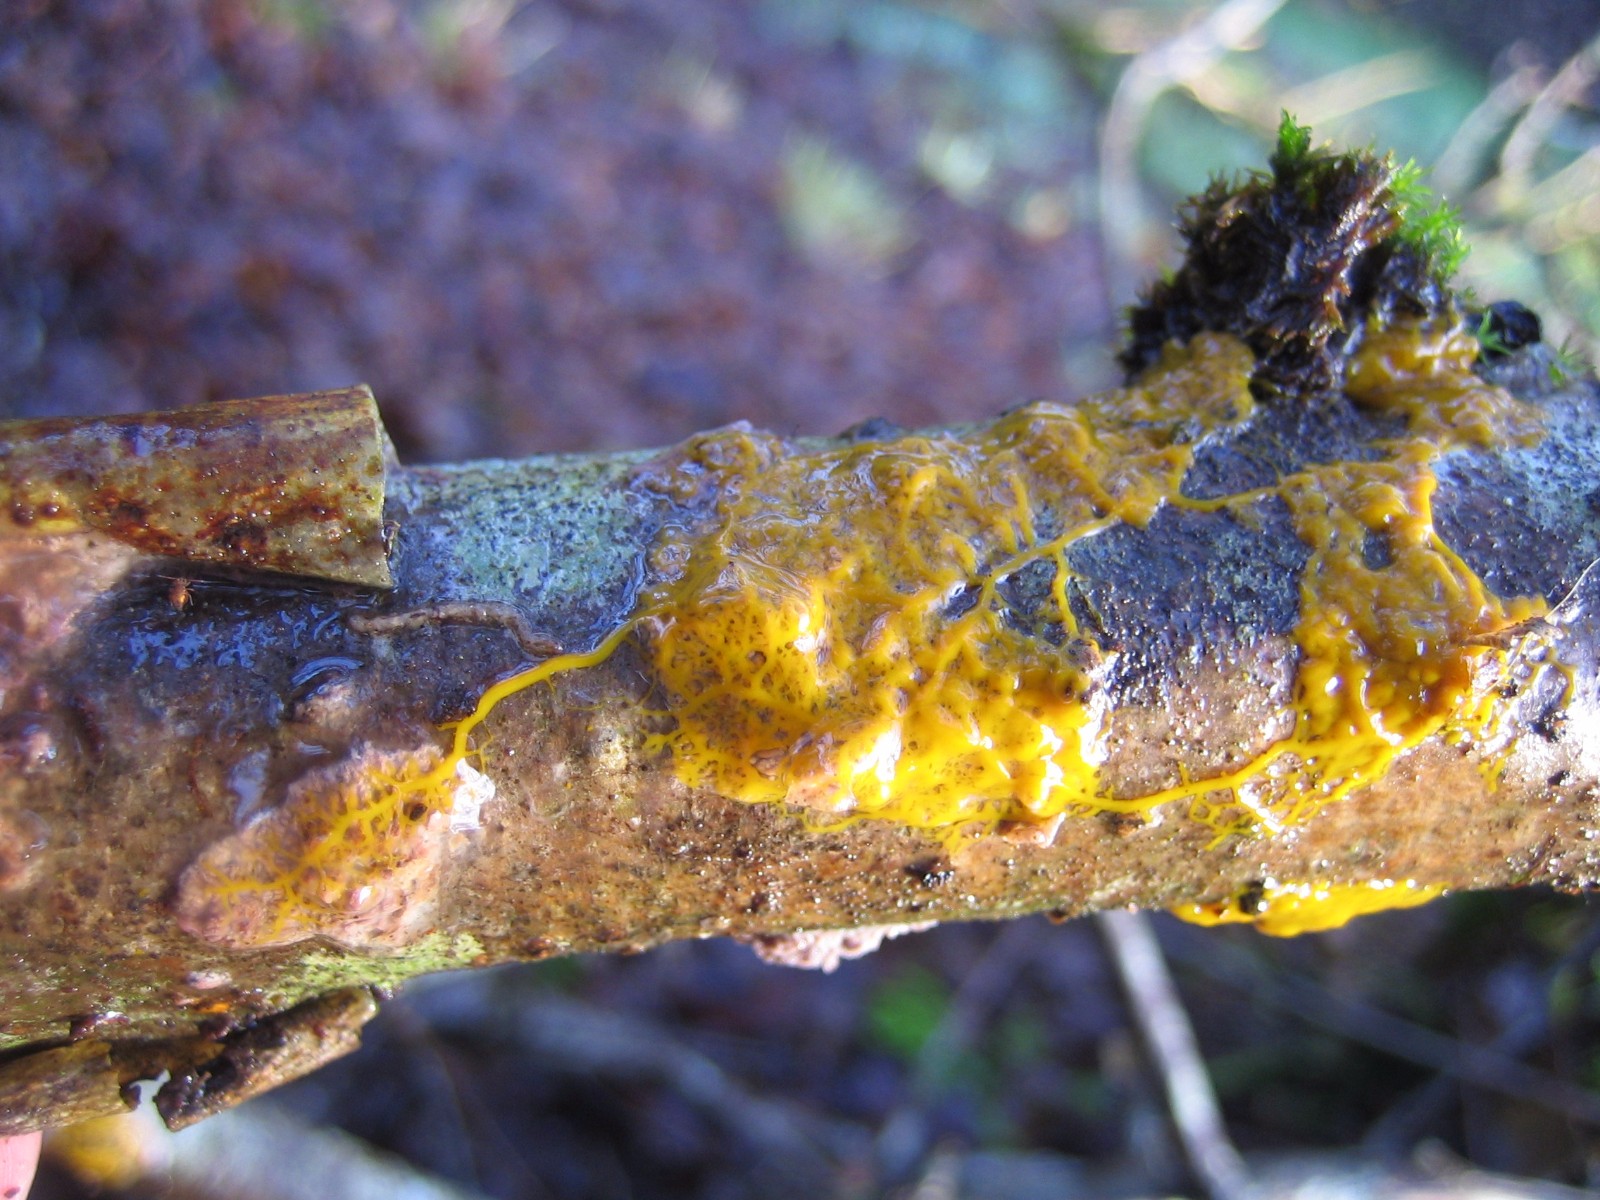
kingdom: Protozoa
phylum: Mycetozoa
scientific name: Mycetozoa
